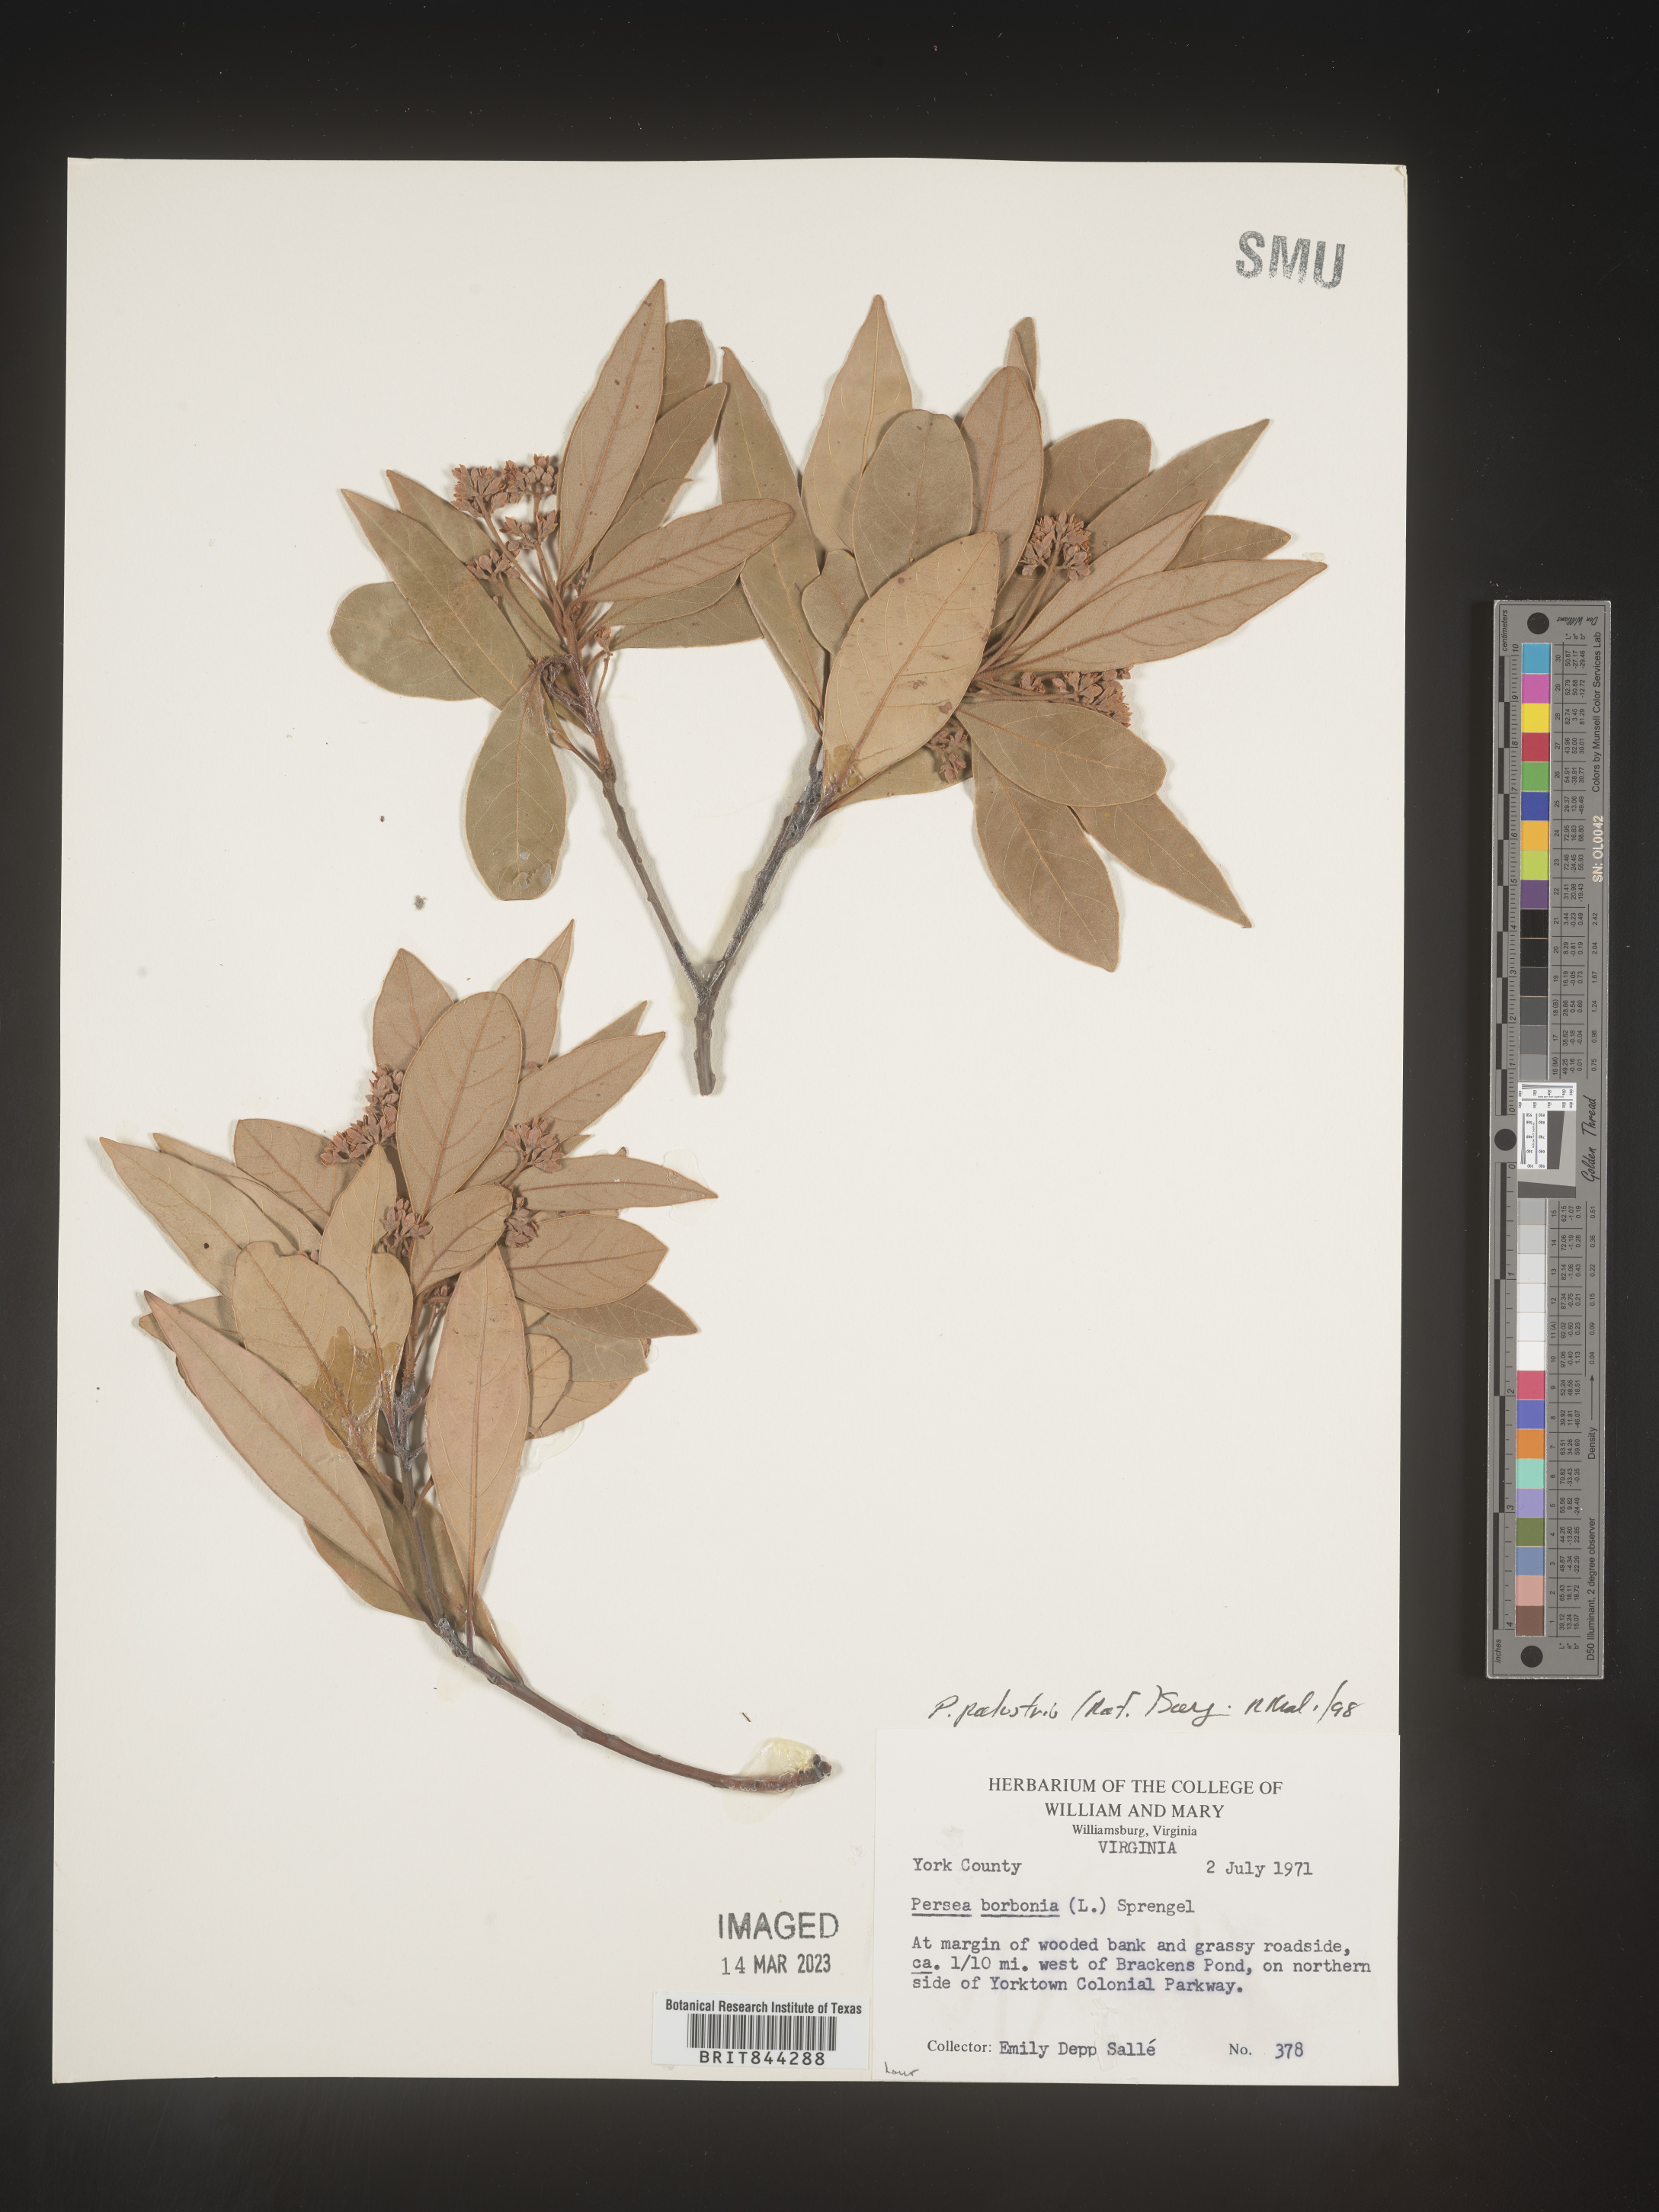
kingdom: Plantae
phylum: Tracheophyta
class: Magnoliopsida
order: Laurales
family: Lauraceae
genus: Persea
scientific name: Persea palustris
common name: Swampbay
